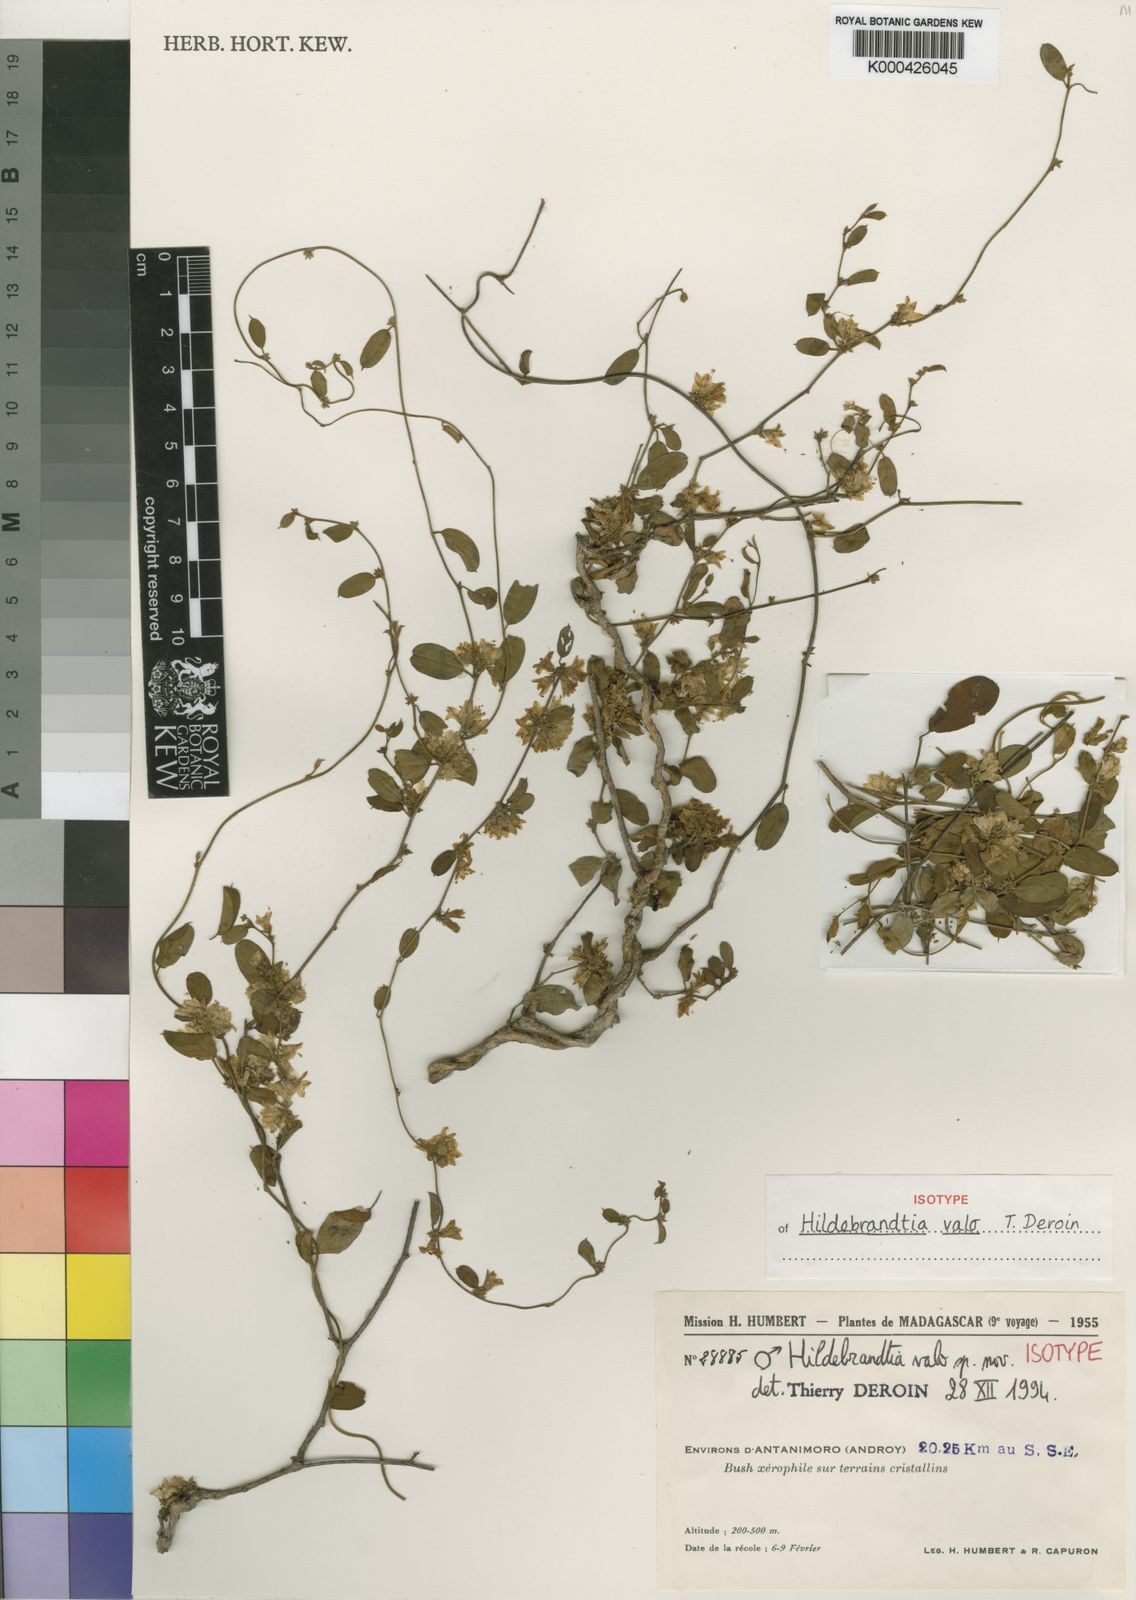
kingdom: Plantae
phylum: Tracheophyta
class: Magnoliopsida
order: Solanales
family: Convolvulaceae
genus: Hildebrandtia
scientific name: Hildebrandtia valo
